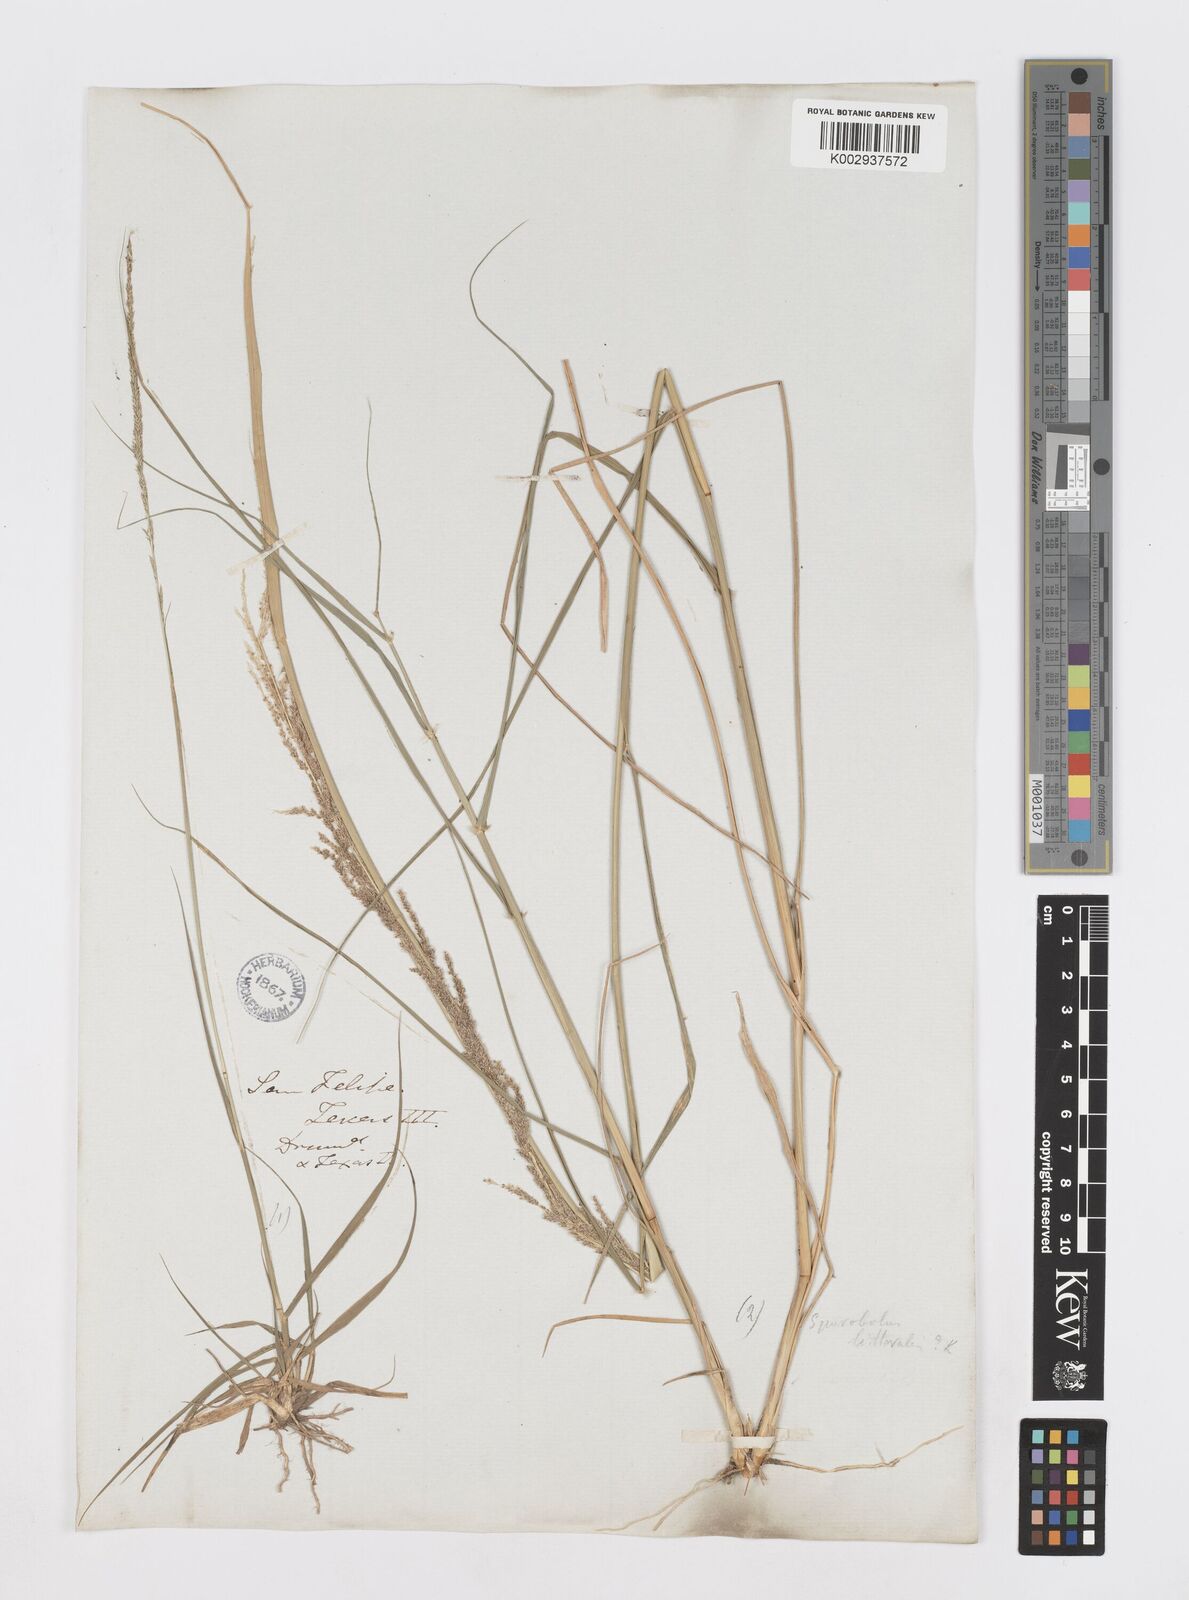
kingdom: Plantae
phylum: Tracheophyta
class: Liliopsida
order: Poales
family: Poaceae
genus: Sporobolus
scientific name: Sporobolus
